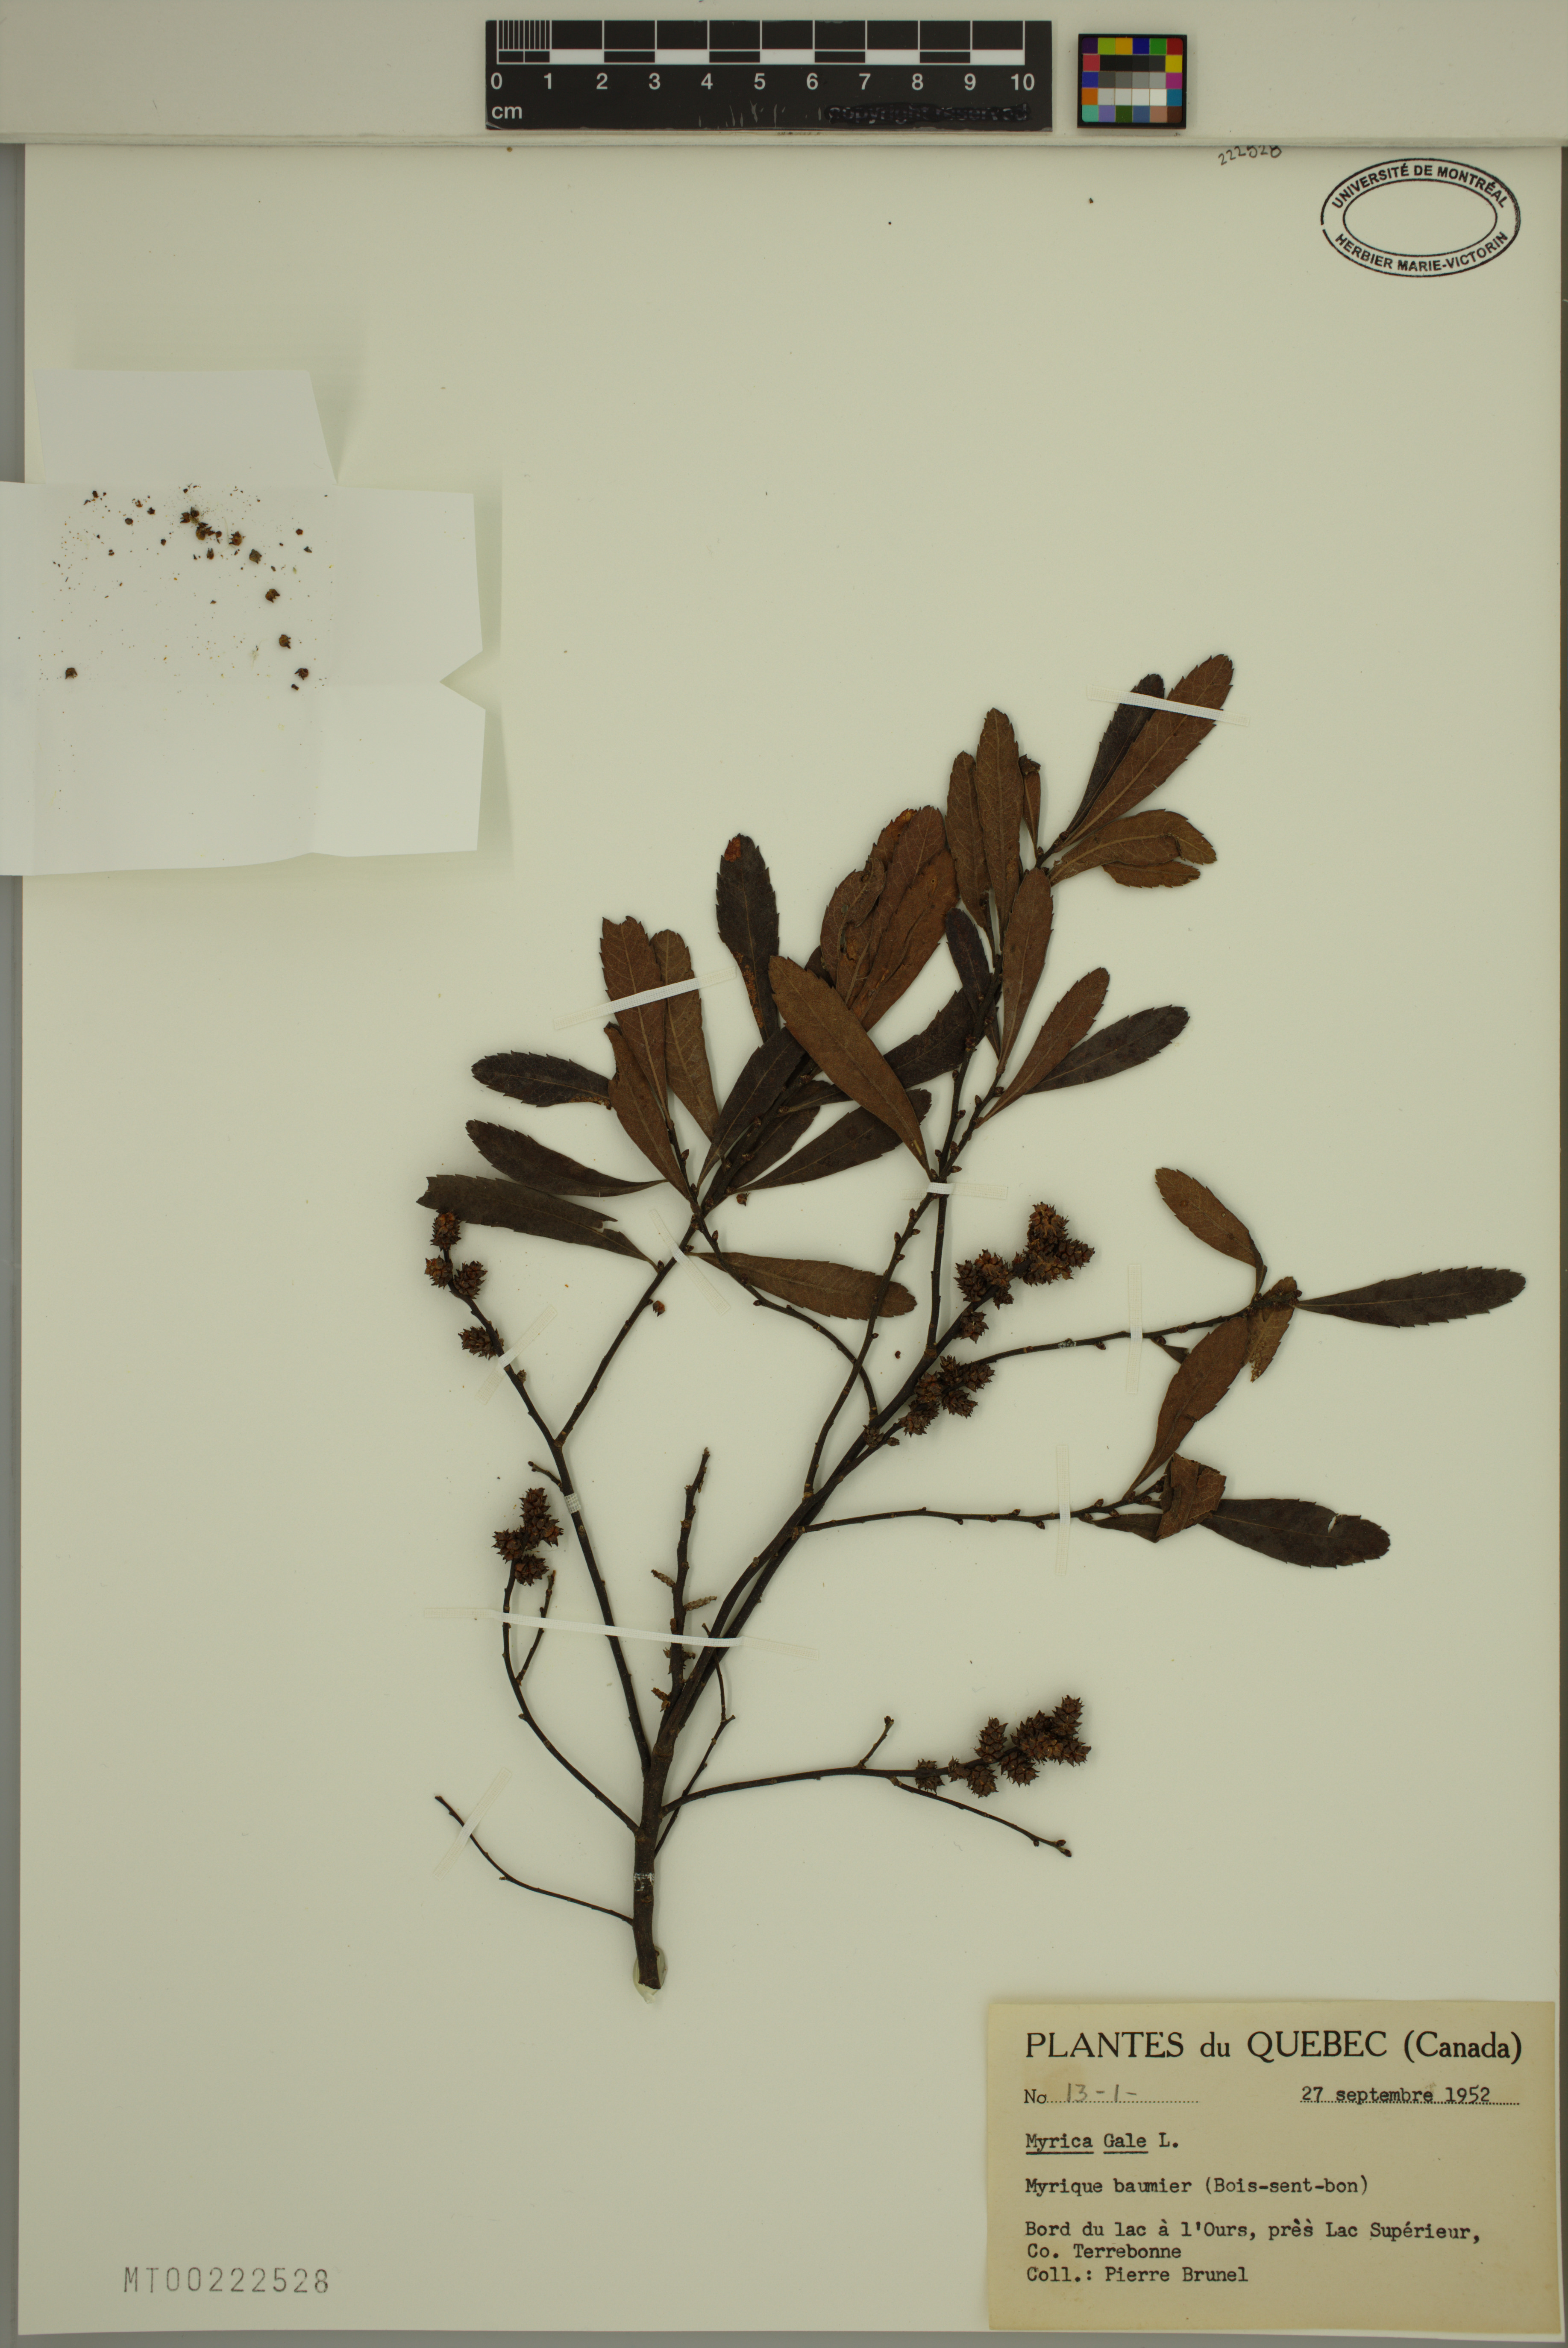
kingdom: Plantae
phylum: Tracheophyta
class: Magnoliopsida
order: Fagales
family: Myricaceae
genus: Myrica
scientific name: Myrica gale
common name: Sweet gale
